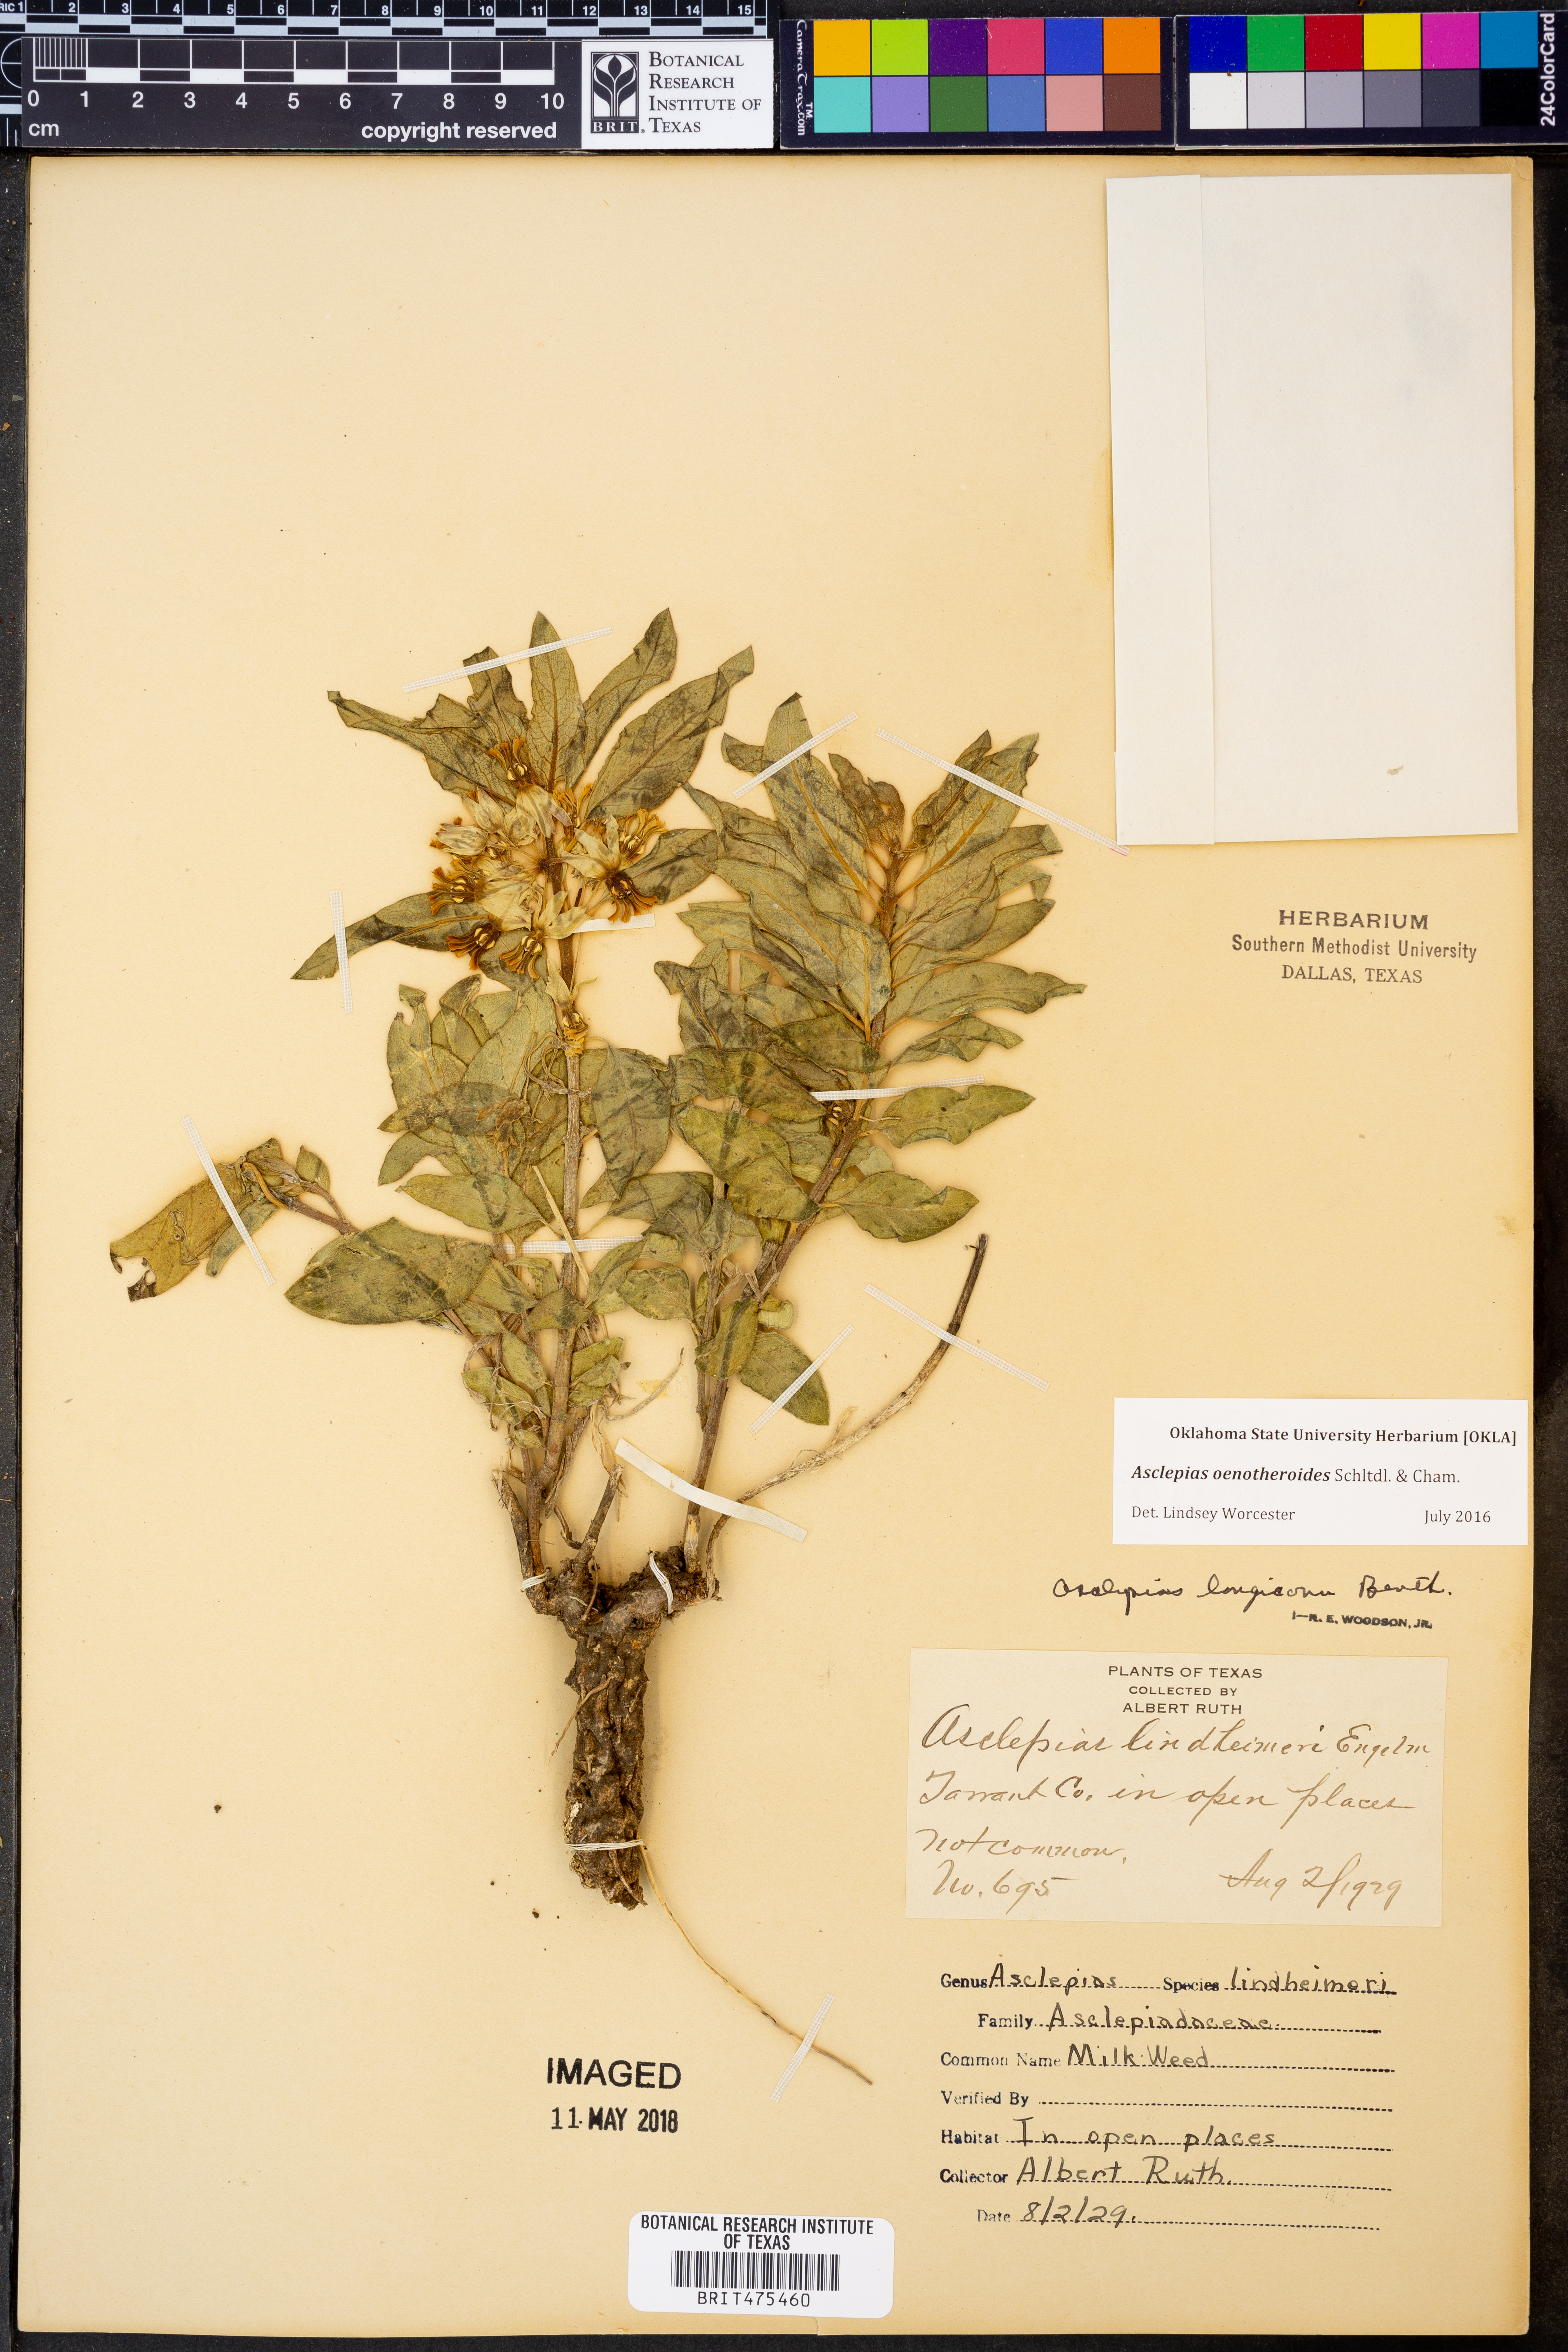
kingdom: Plantae
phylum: Tracheophyta
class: Magnoliopsida
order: Gentianales
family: Apocynaceae
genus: Asclepias
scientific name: Asclepias oenotheroides
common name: Zizotes milkweed
